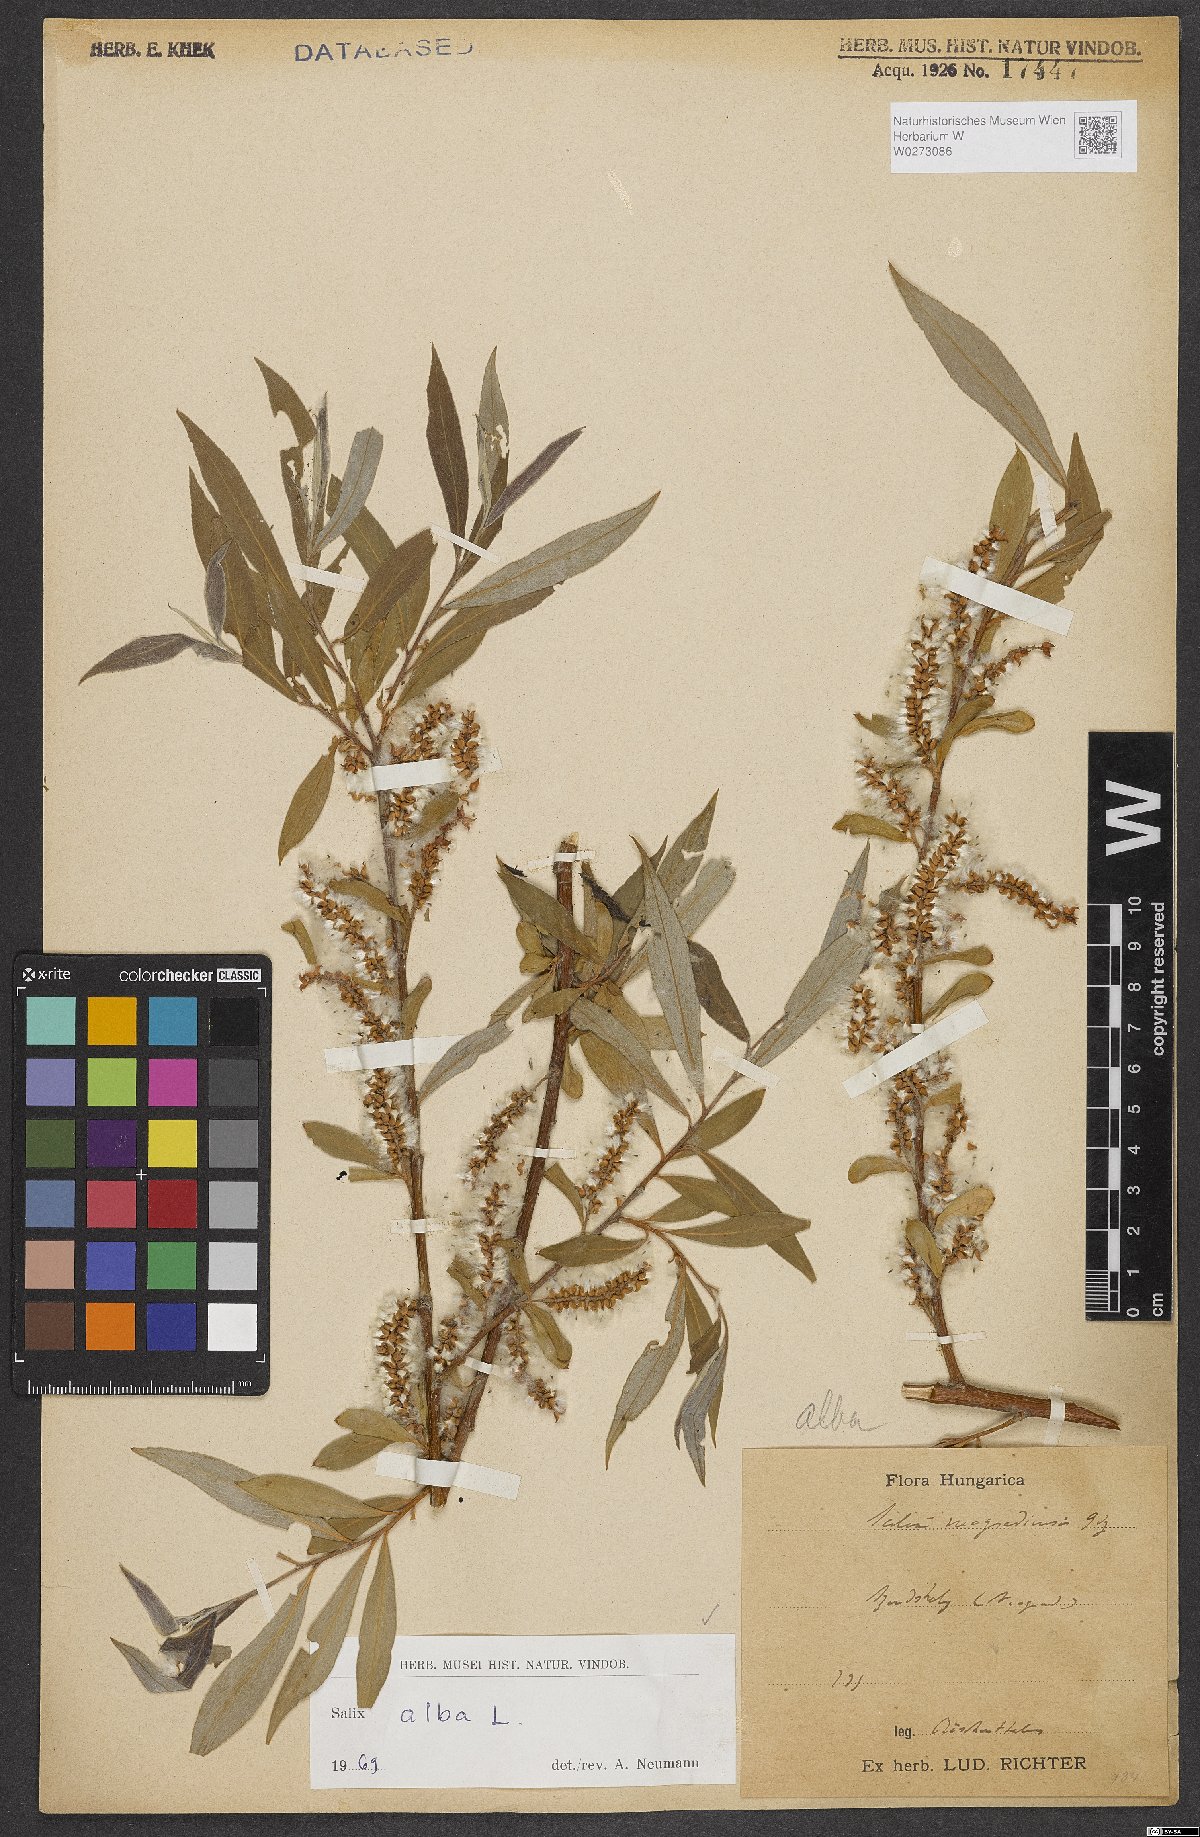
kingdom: Plantae
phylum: Tracheophyta
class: Magnoliopsida
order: Malpighiales
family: Salicaceae
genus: Salix
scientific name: Salix alba
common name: White willow
